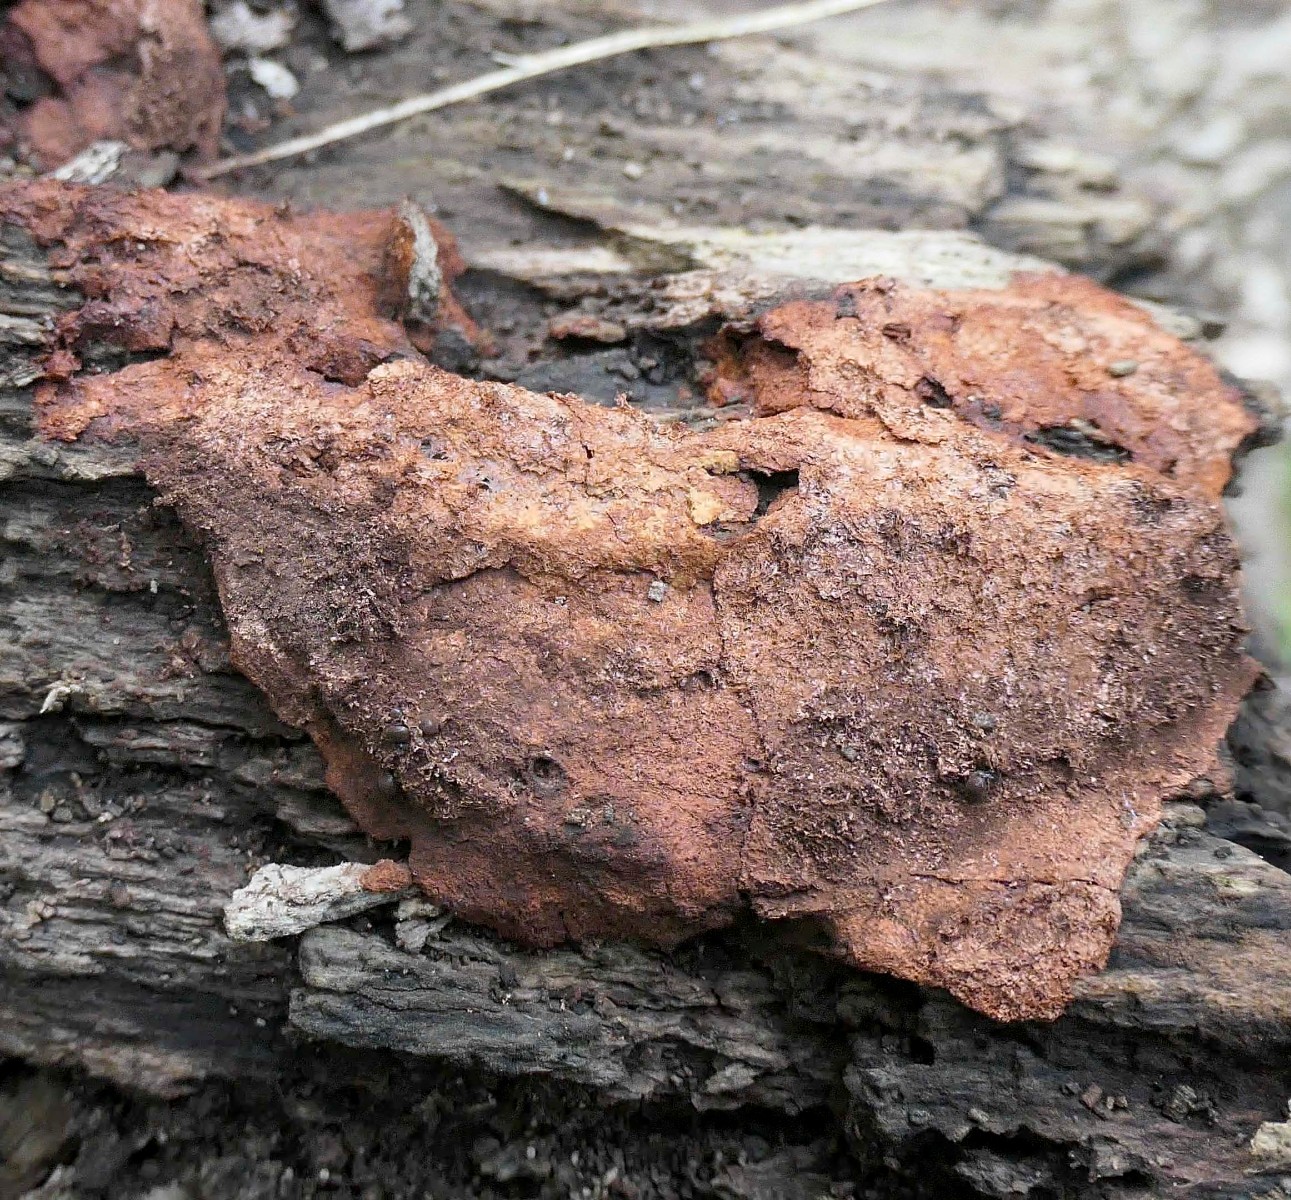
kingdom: Protozoa
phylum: Mycetozoa
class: Myxomycetes
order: Physarales
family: Physaraceae
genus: Fuligo
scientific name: Fuligo septica
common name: Dog vomit slime mold
